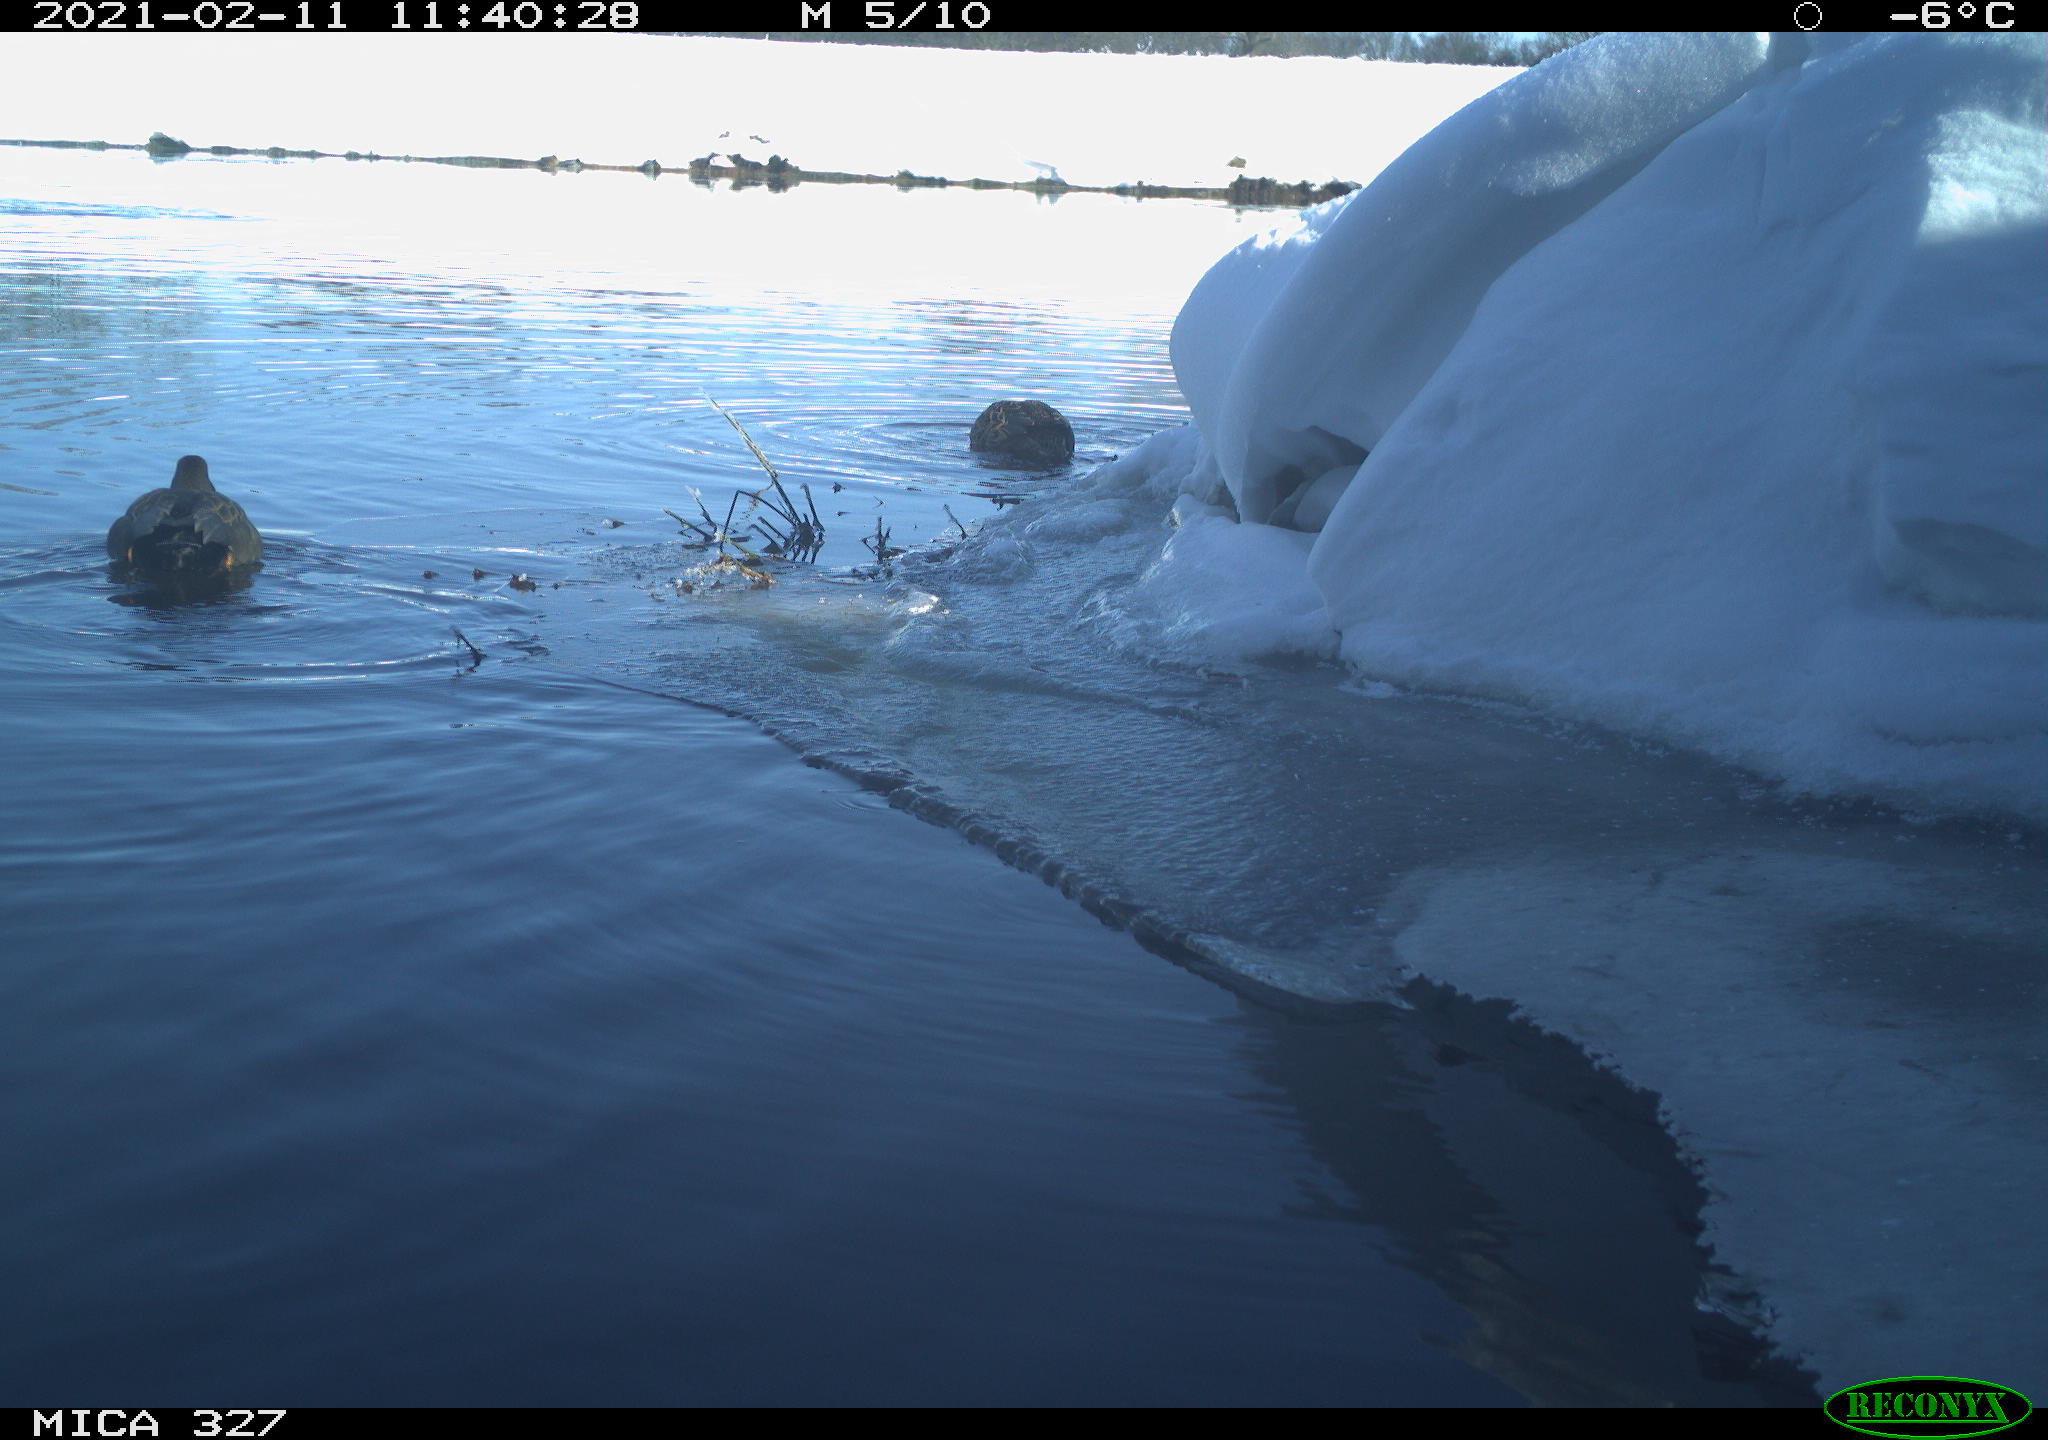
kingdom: Animalia
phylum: Chordata
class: Aves
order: Anseriformes
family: Anatidae
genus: Anas
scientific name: Anas
